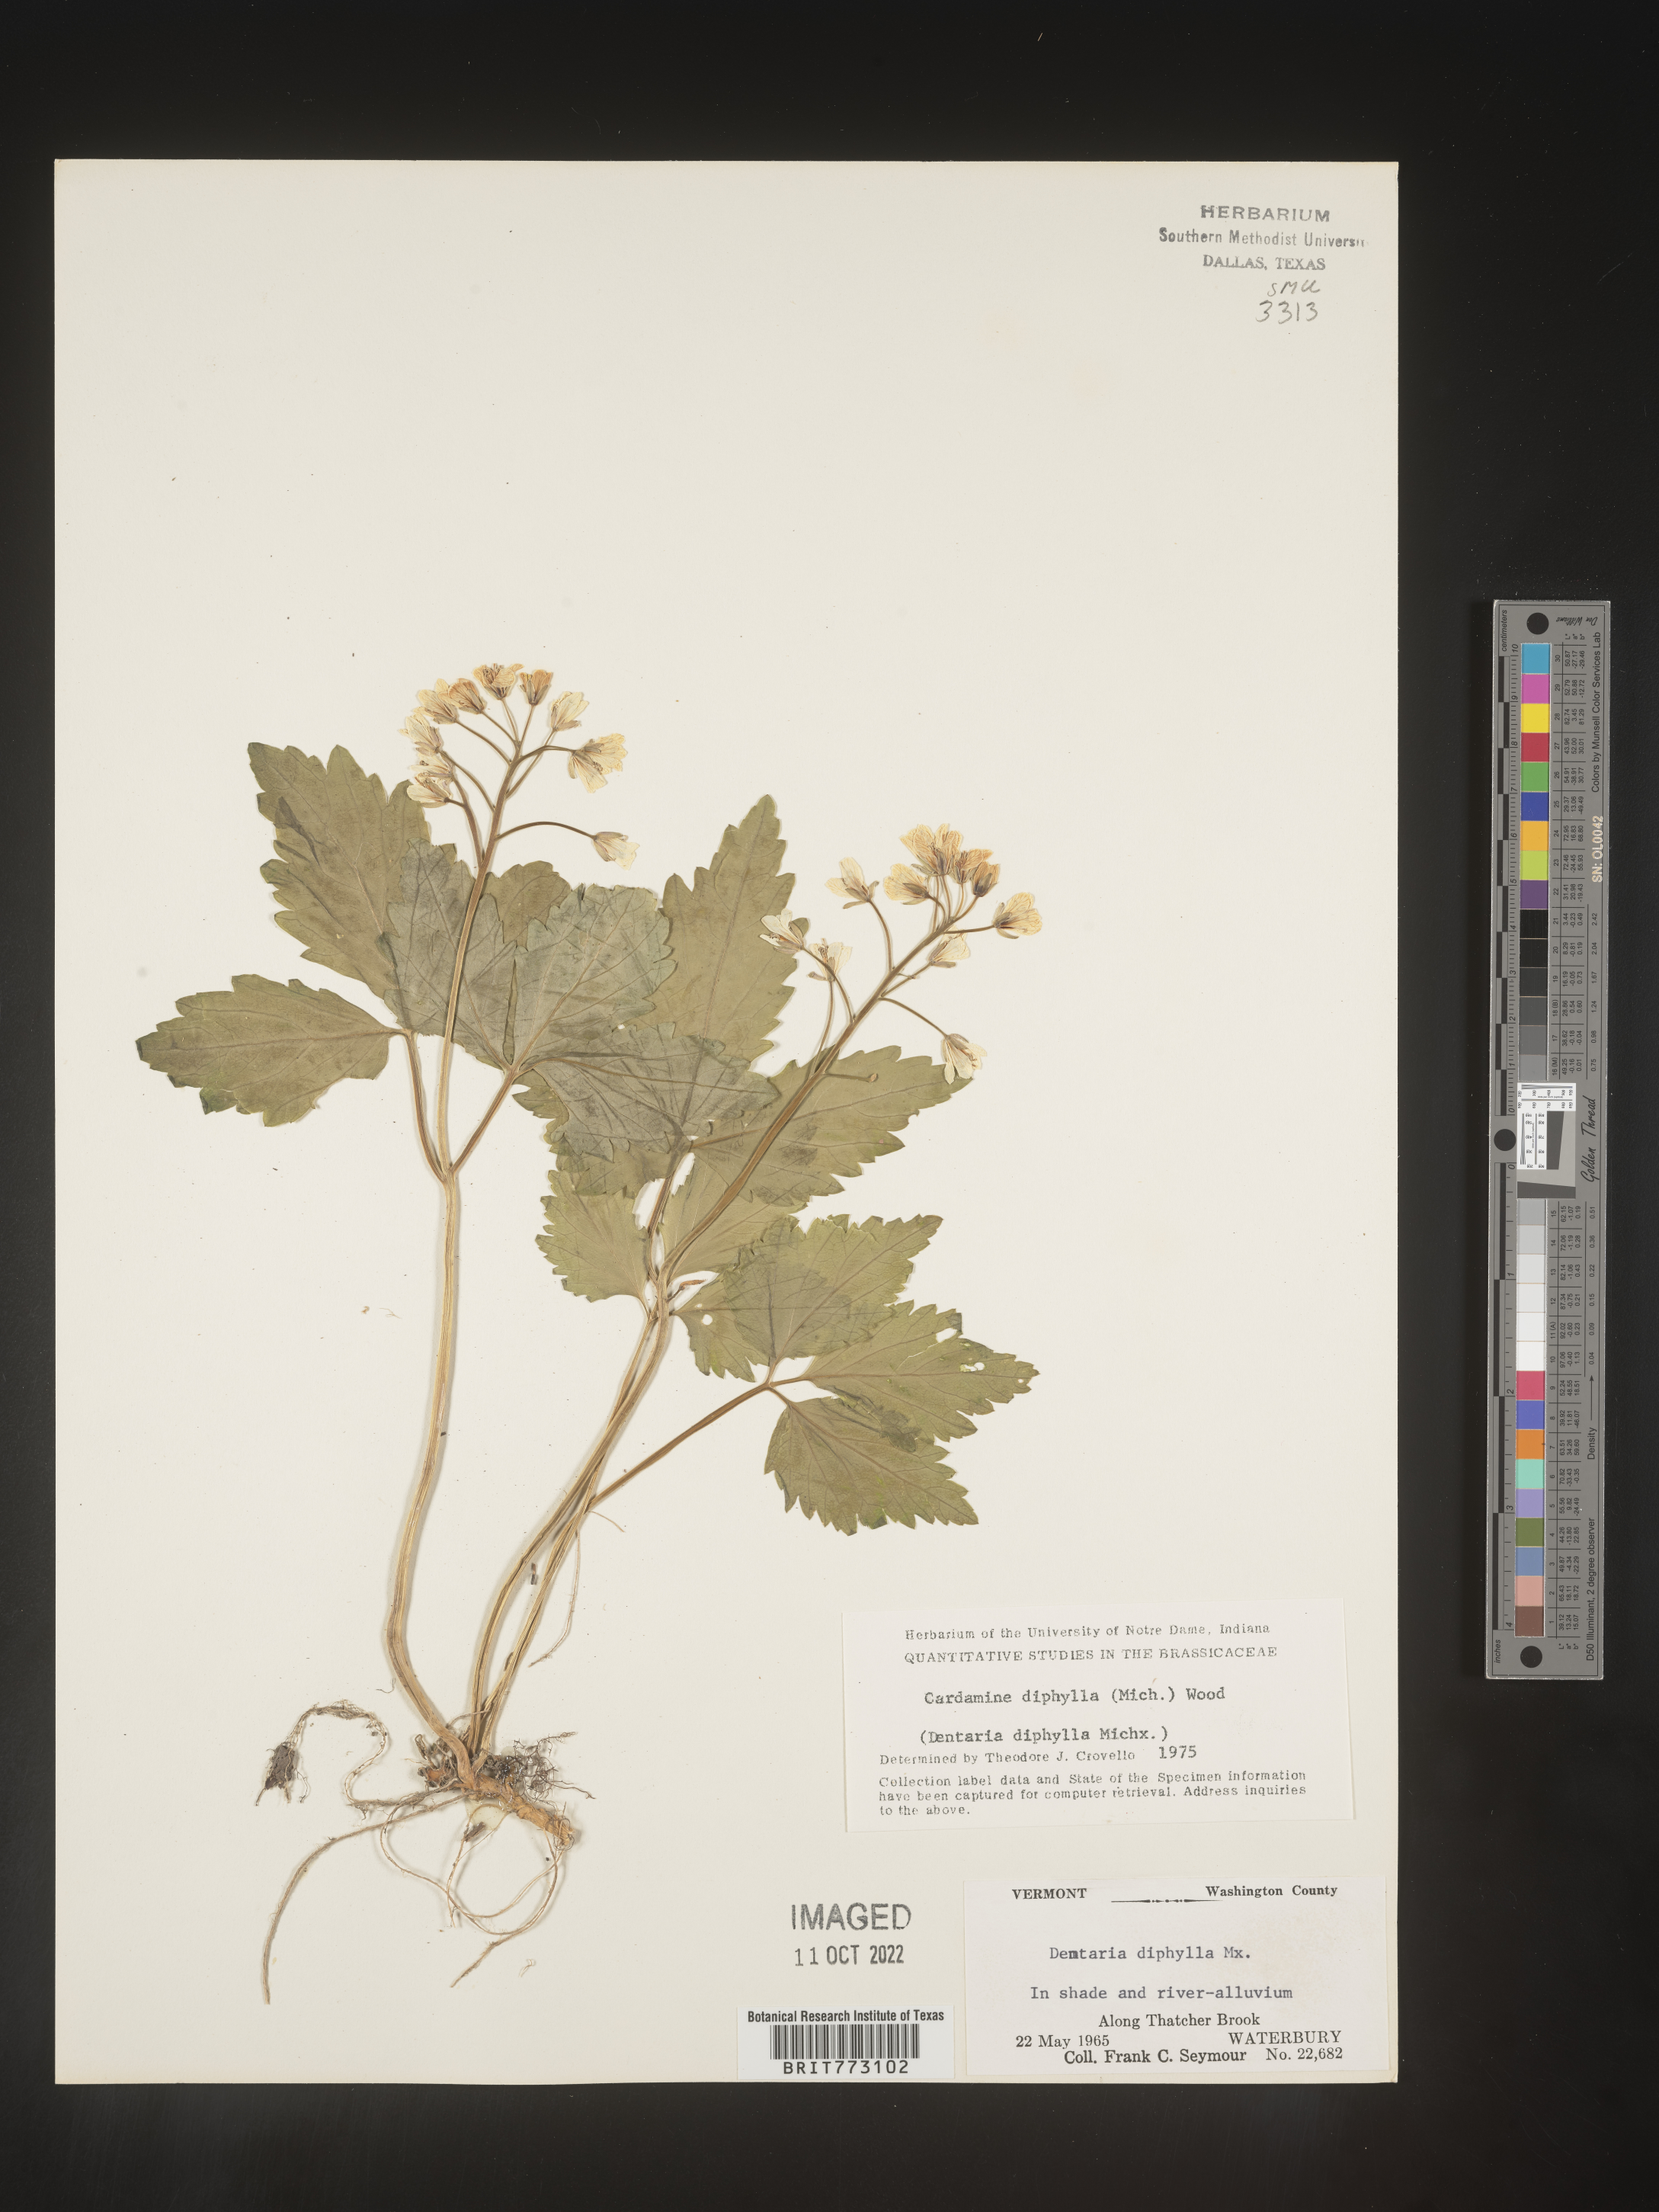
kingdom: Plantae
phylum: Tracheophyta
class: Magnoliopsida
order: Brassicales
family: Brassicaceae
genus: Cardamine
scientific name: Cardamine diphylla
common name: Broad-leaved toothwort
